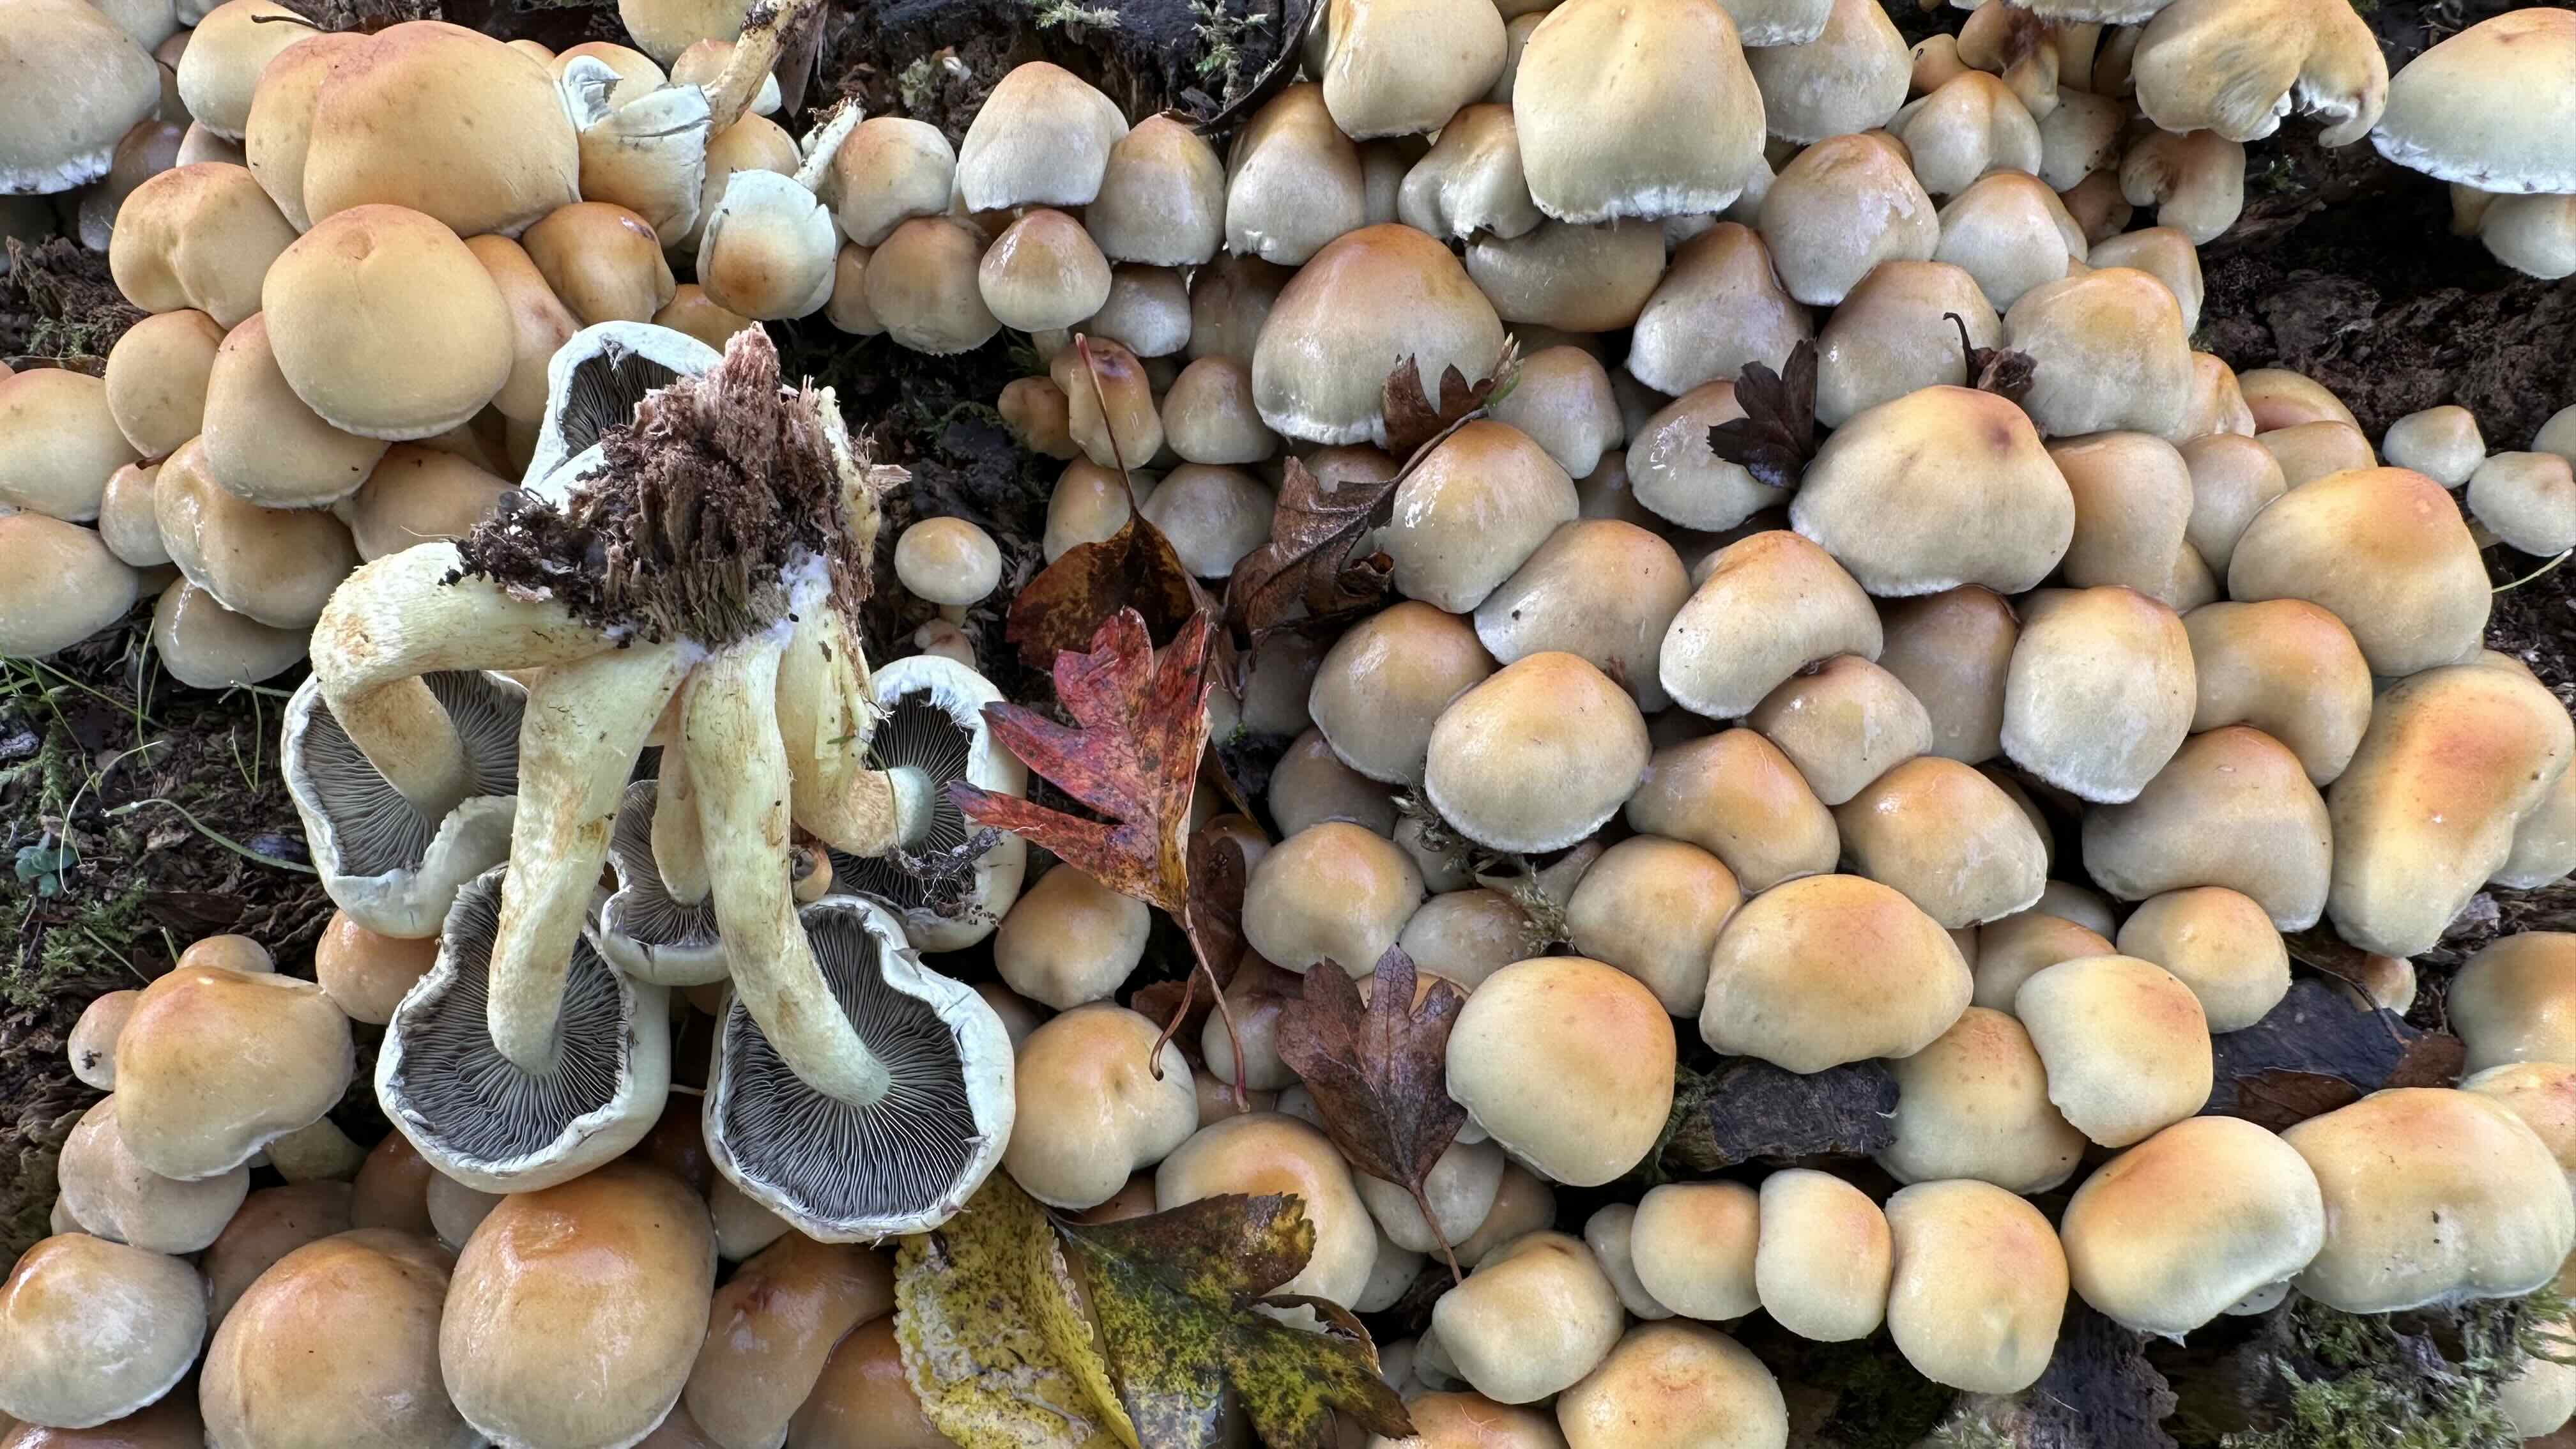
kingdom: Fungi
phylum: Basidiomycota
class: Agaricomycetes
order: Agaricales
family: Strophariaceae
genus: Hypholoma
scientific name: Hypholoma fasciculare
